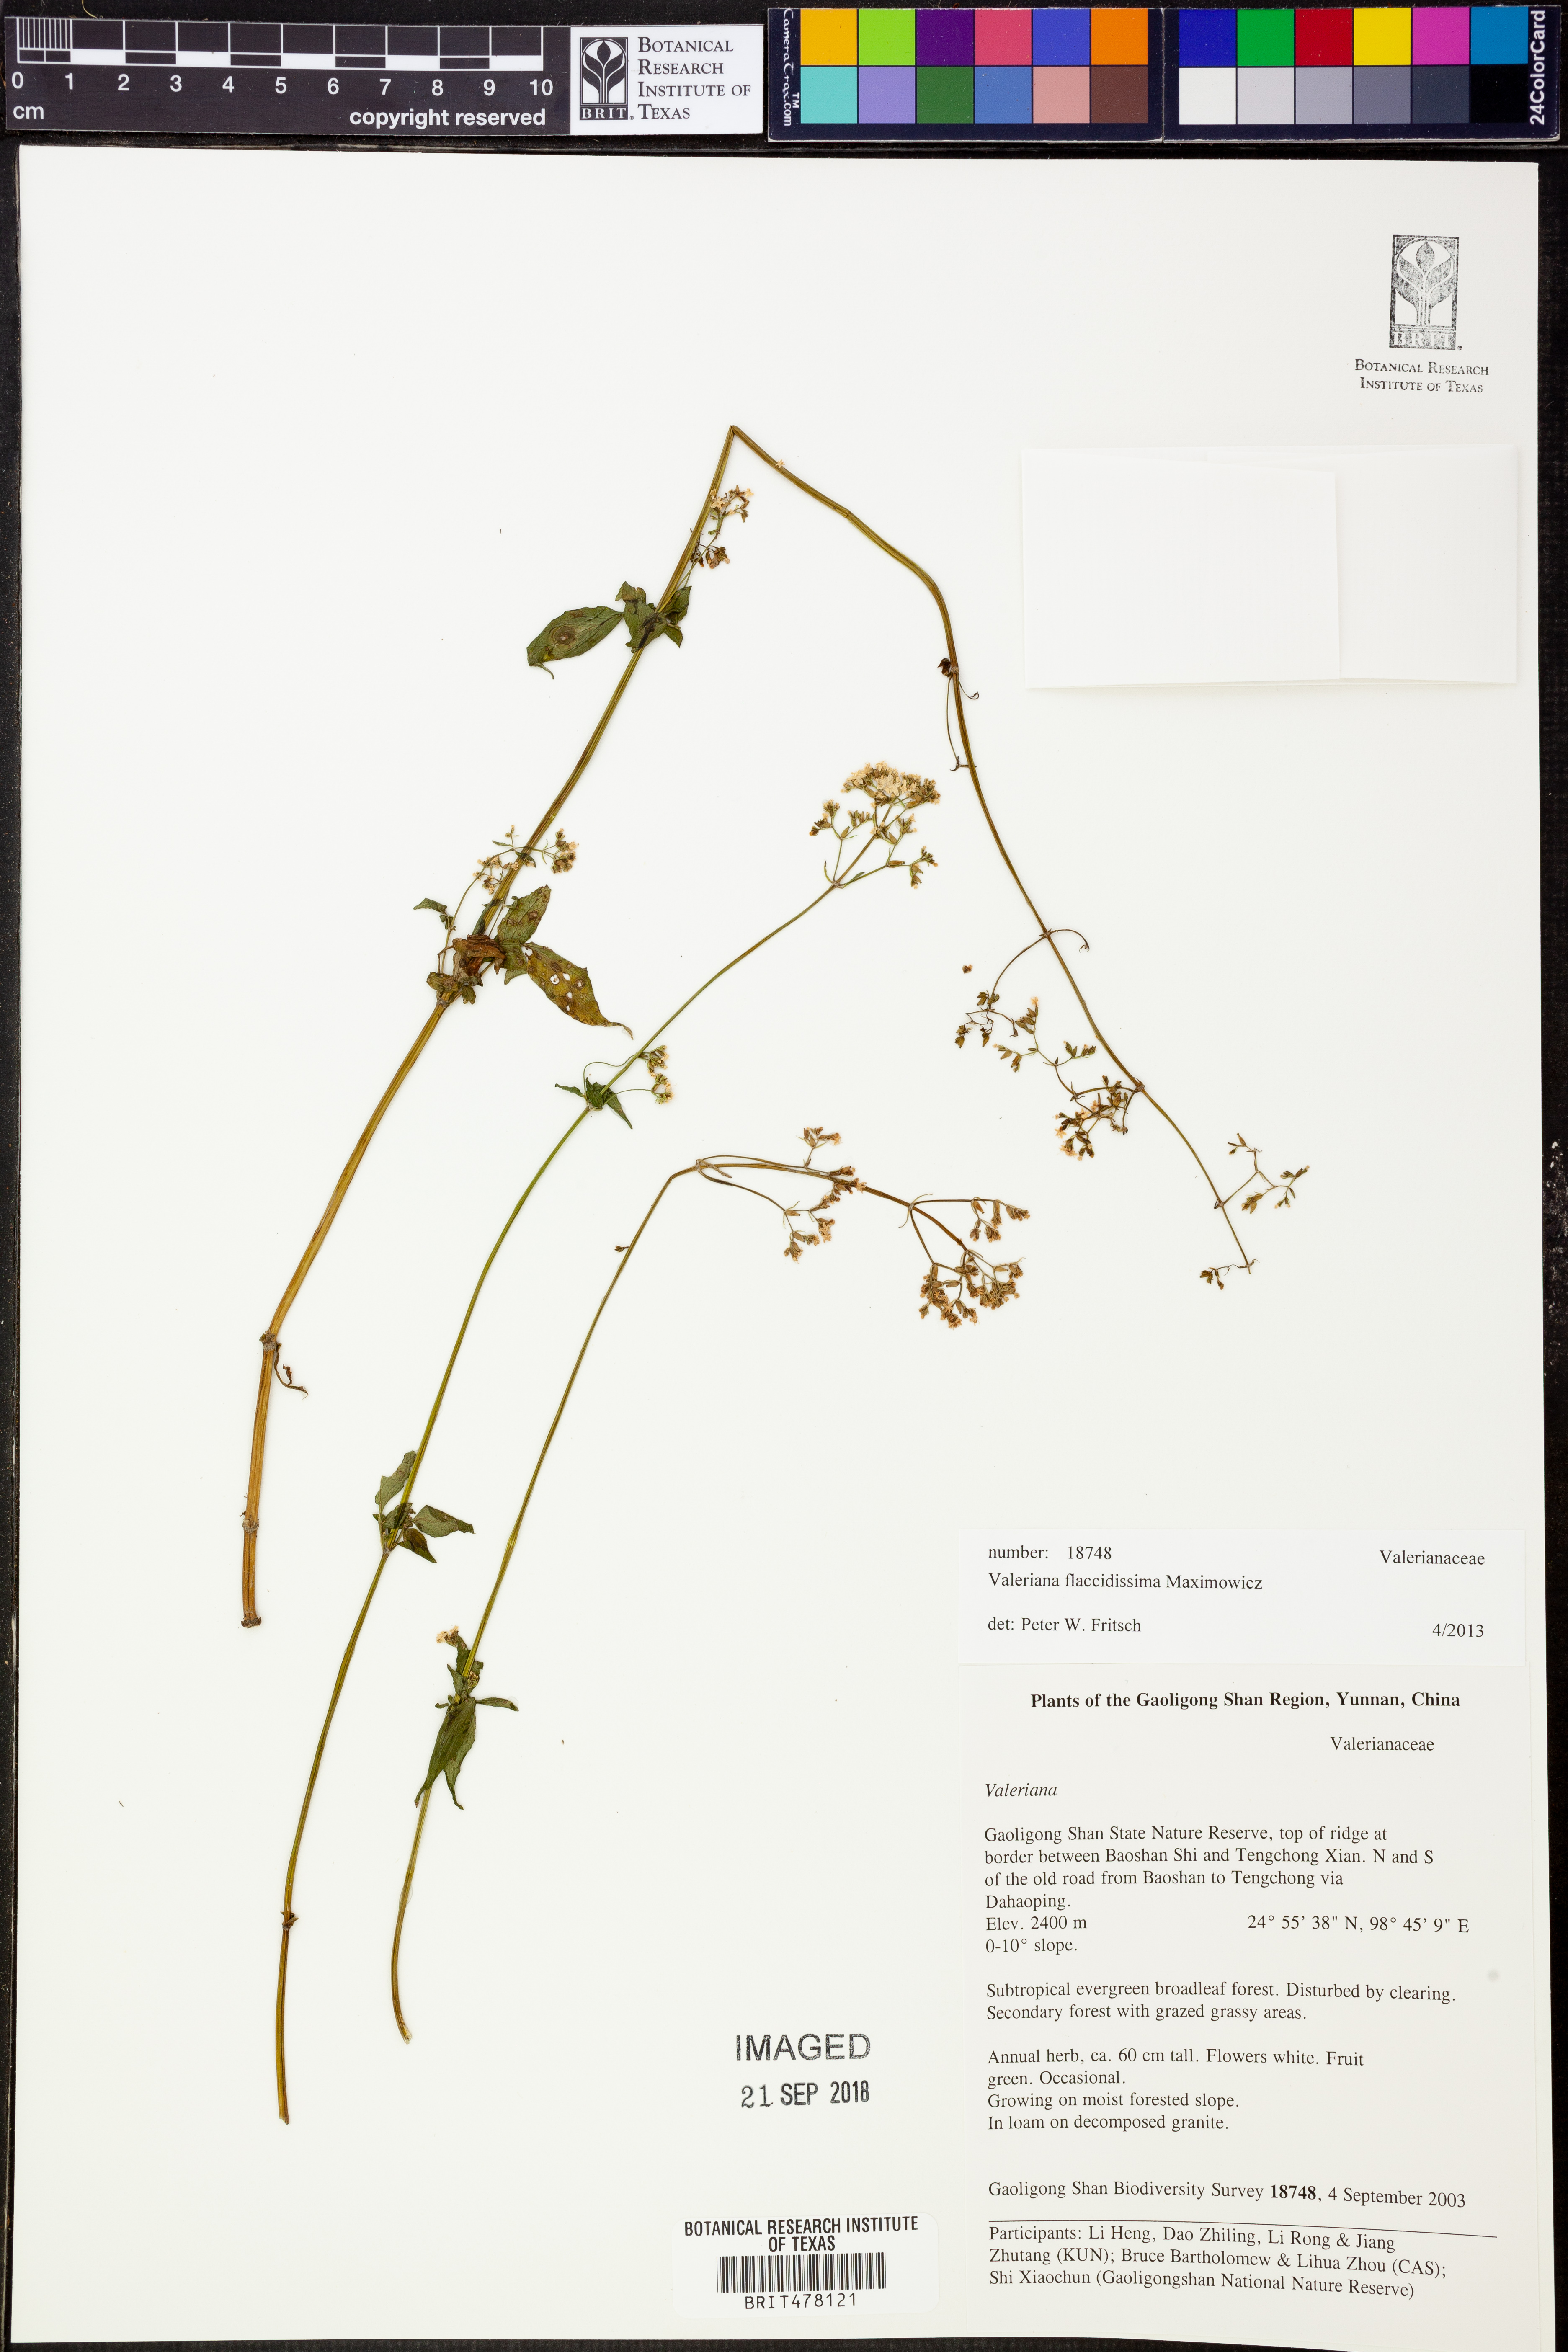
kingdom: Plantae
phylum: Tracheophyta
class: Magnoliopsida
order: Dipsacales
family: Caprifoliaceae
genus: Valeriana
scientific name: Valeriana flaccidissima
